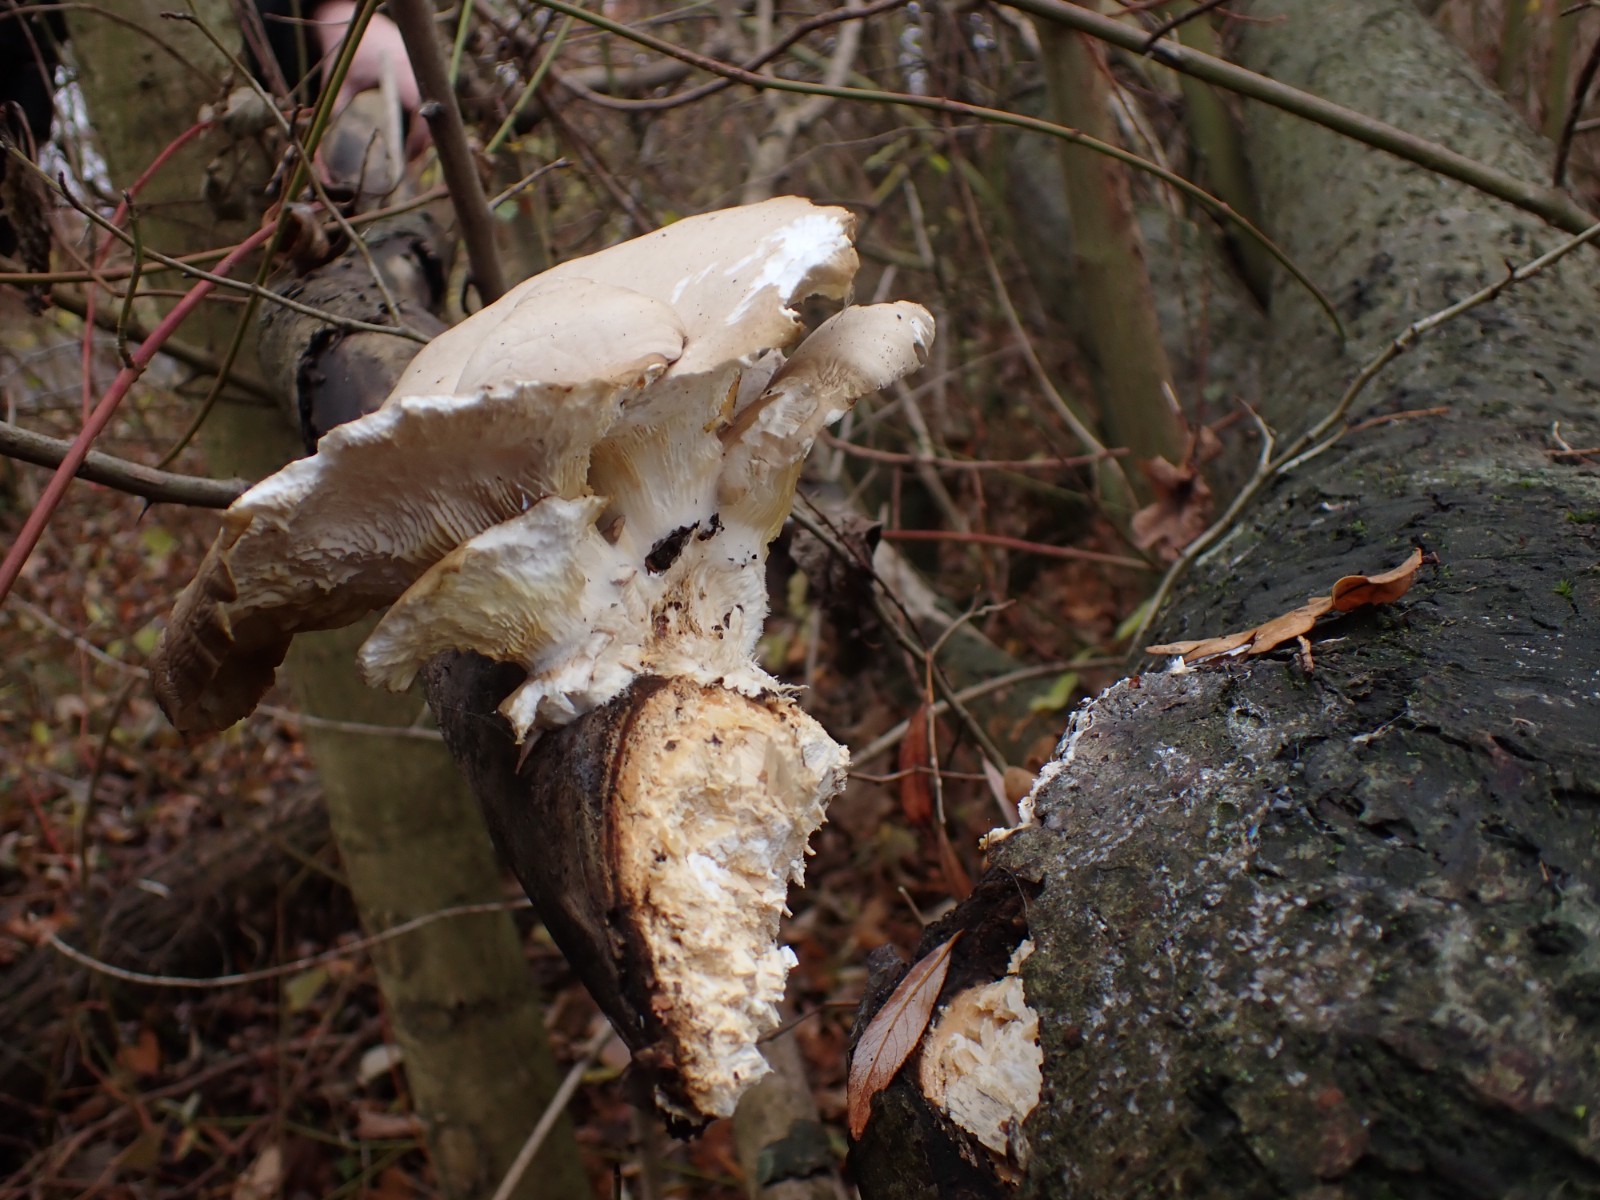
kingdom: Fungi
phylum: Basidiomycota
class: Agaricomycetes
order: Agaricales
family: Pleurotaceae
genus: Pleurotus
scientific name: Pleurotus ostreatus
